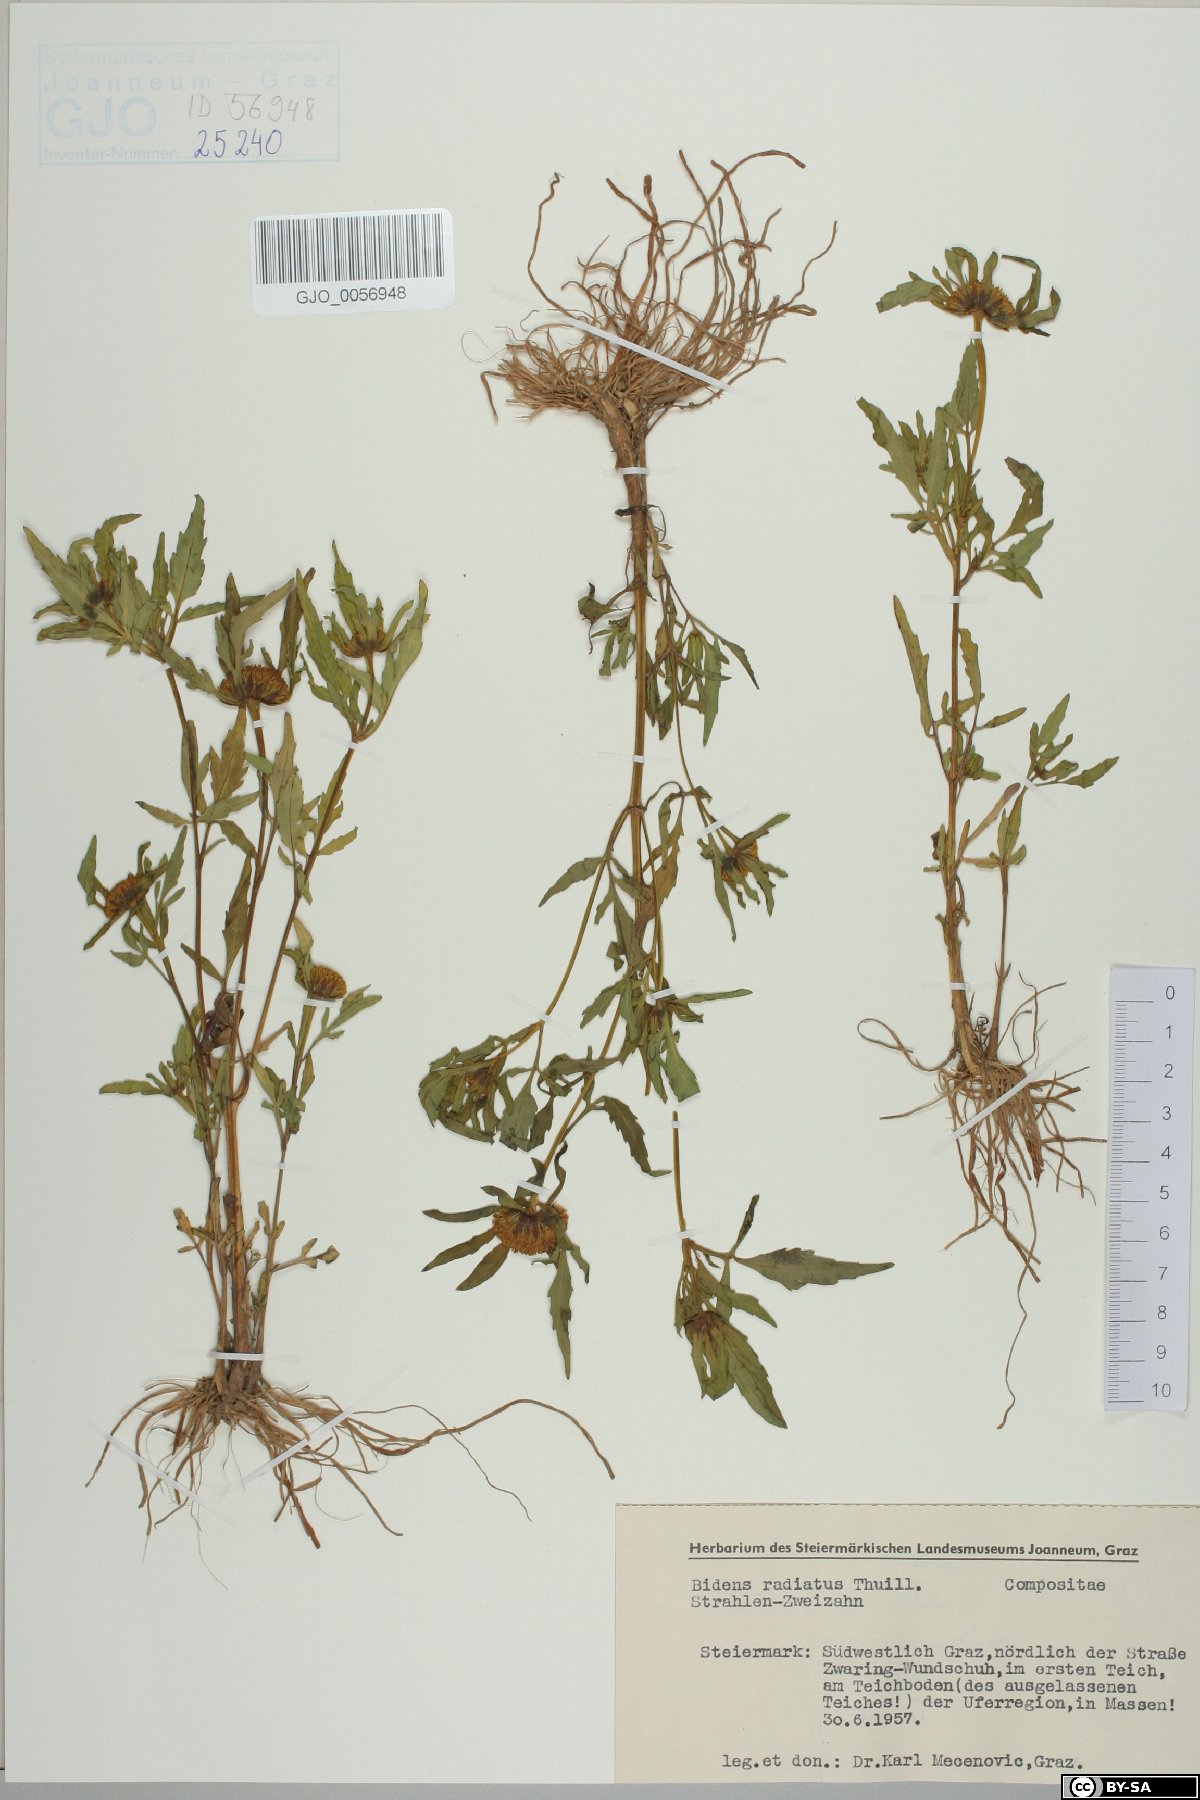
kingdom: Plantae
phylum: Tracheophyta
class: Magnoliopsida
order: Asterales
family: Asteraceae
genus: Bidens
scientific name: Bidens radiata
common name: Radiating bur-marigold
